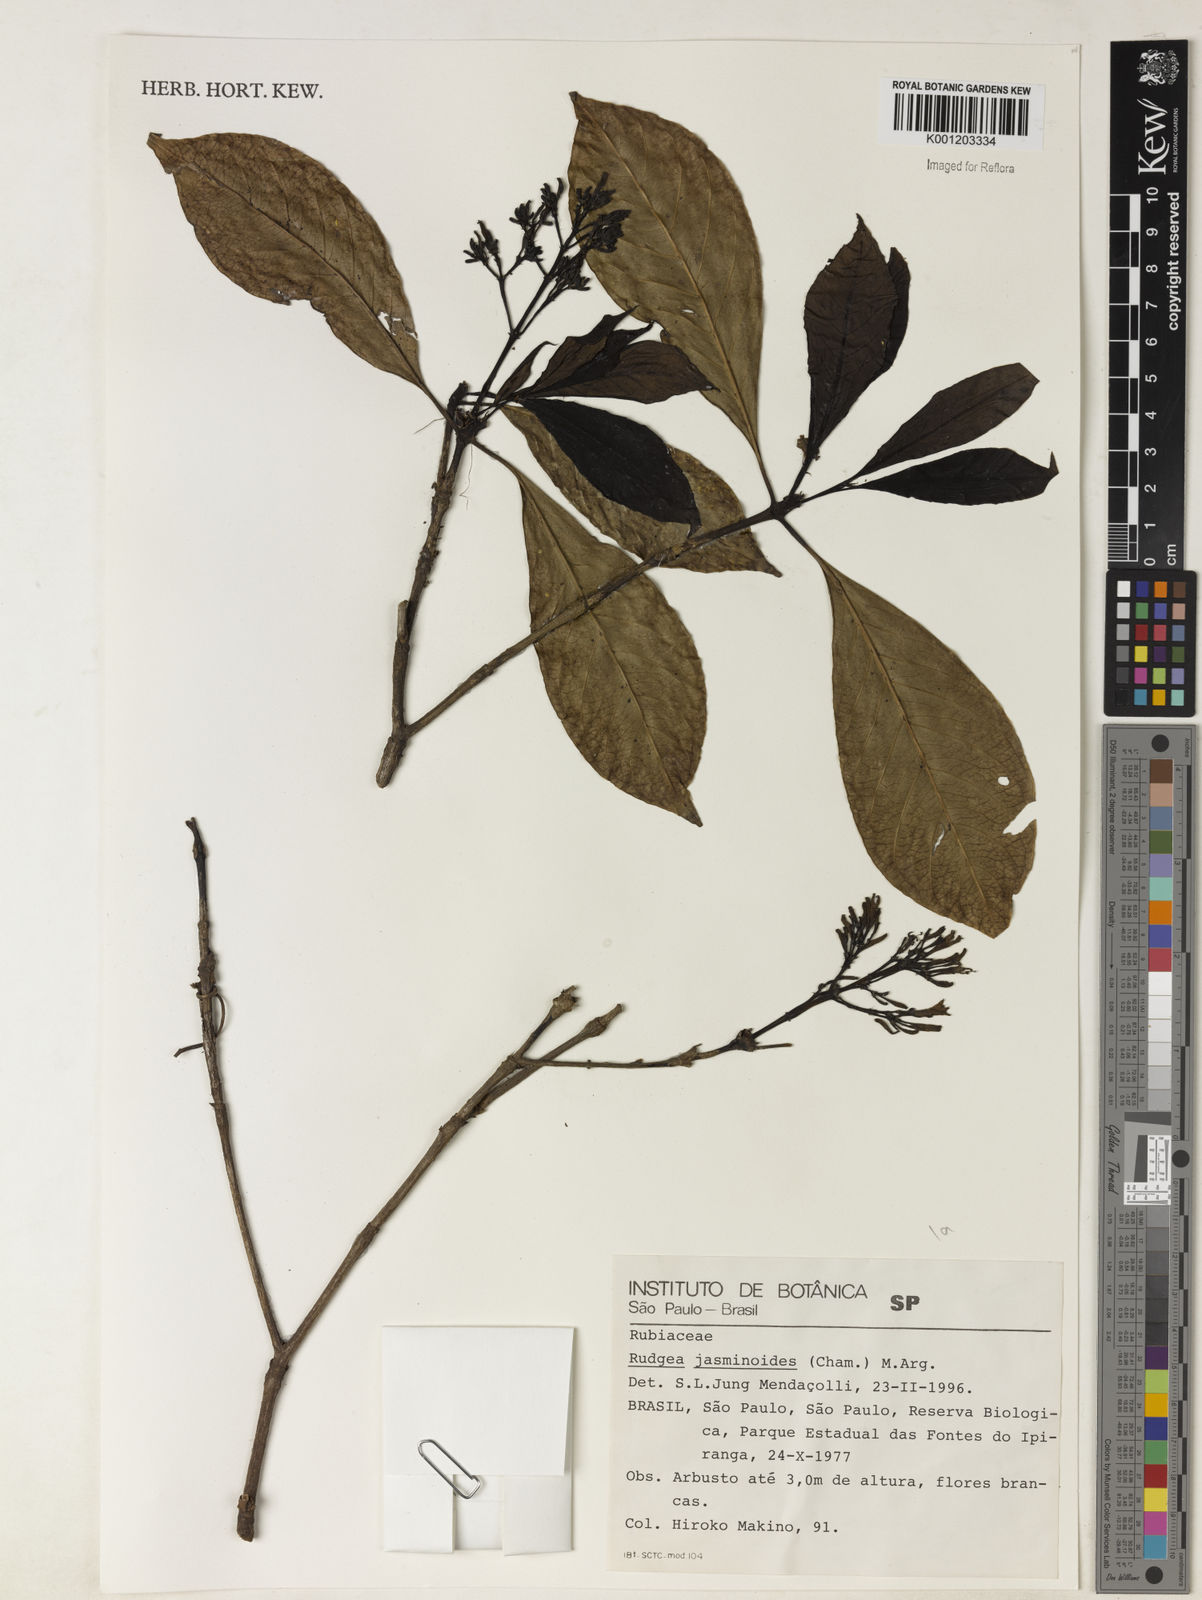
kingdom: Plantae
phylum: Tracheophyta
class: Magnoliopsida
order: Gentianales
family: Rubiaceae
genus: Rudgea
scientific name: Rudgea
